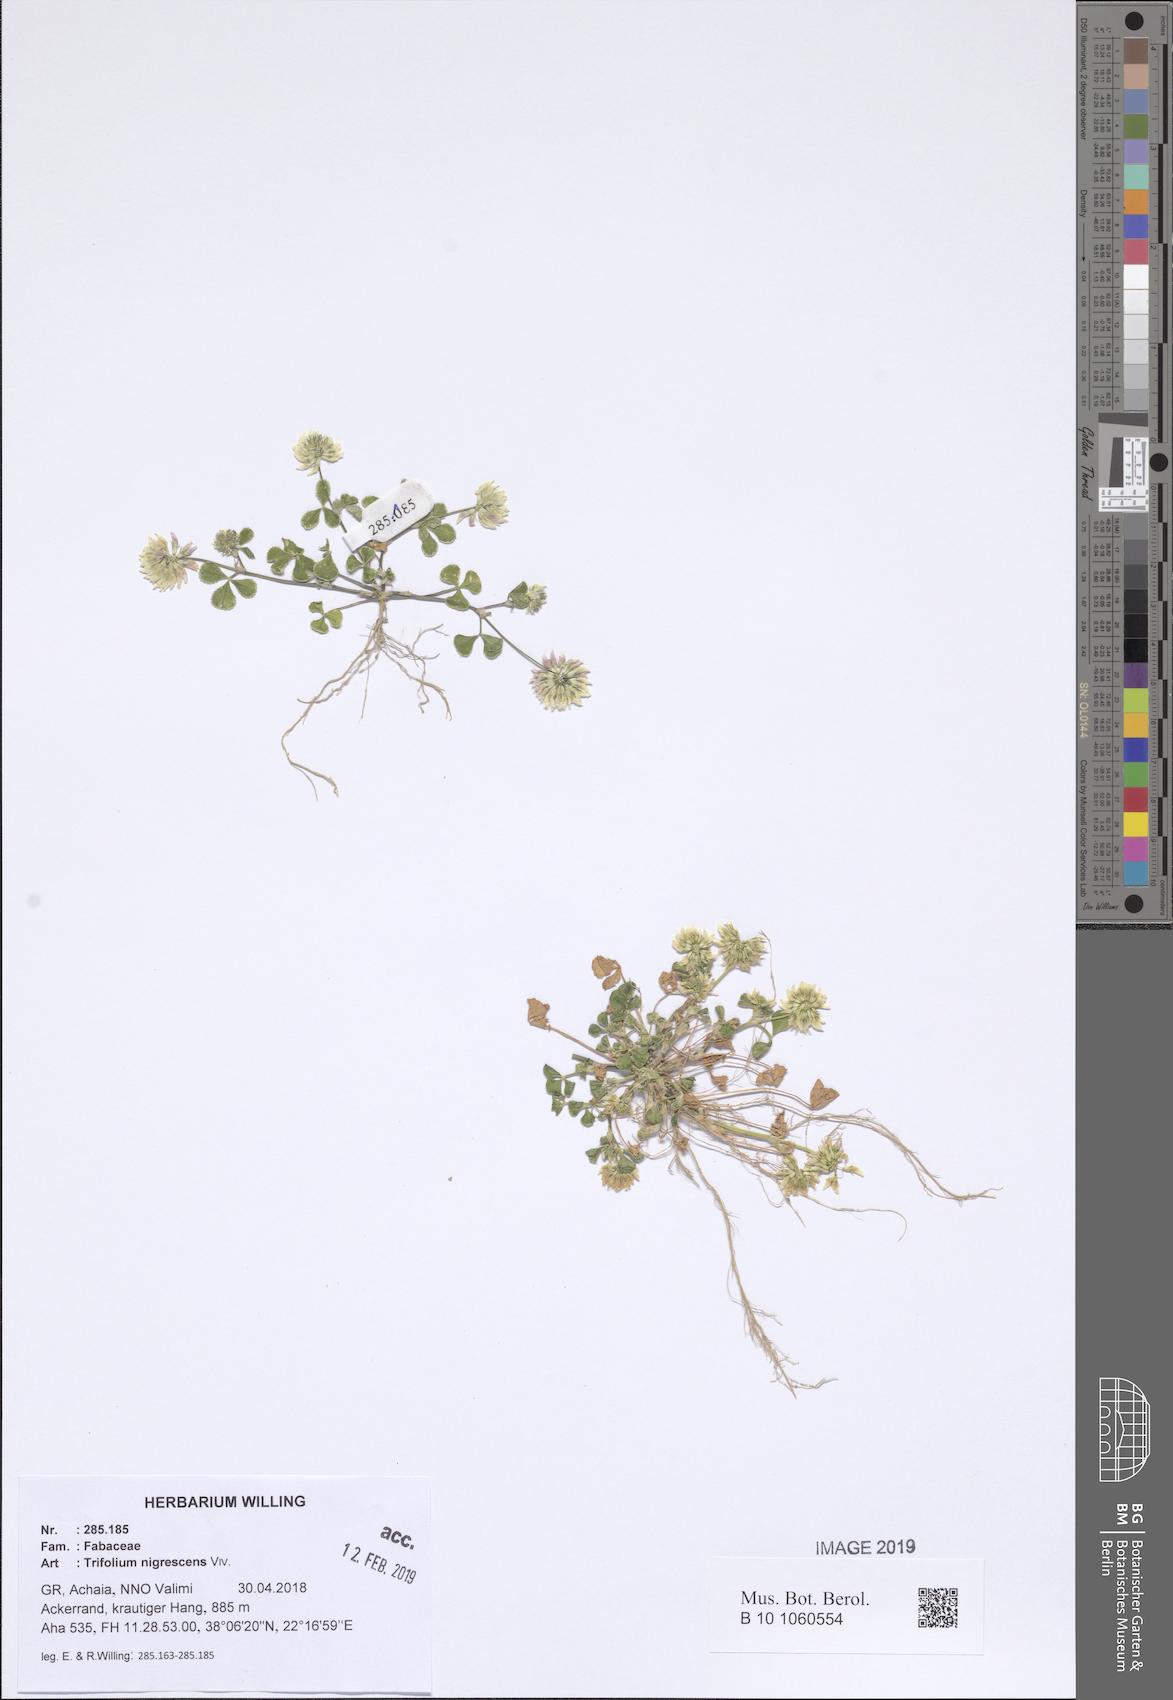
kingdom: Plantae
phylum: Tracheophyta
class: Magnoliopsida
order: Fabales
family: Fabaceae
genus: Trifolium
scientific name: Trifolium nigrescens
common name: Small white clover
